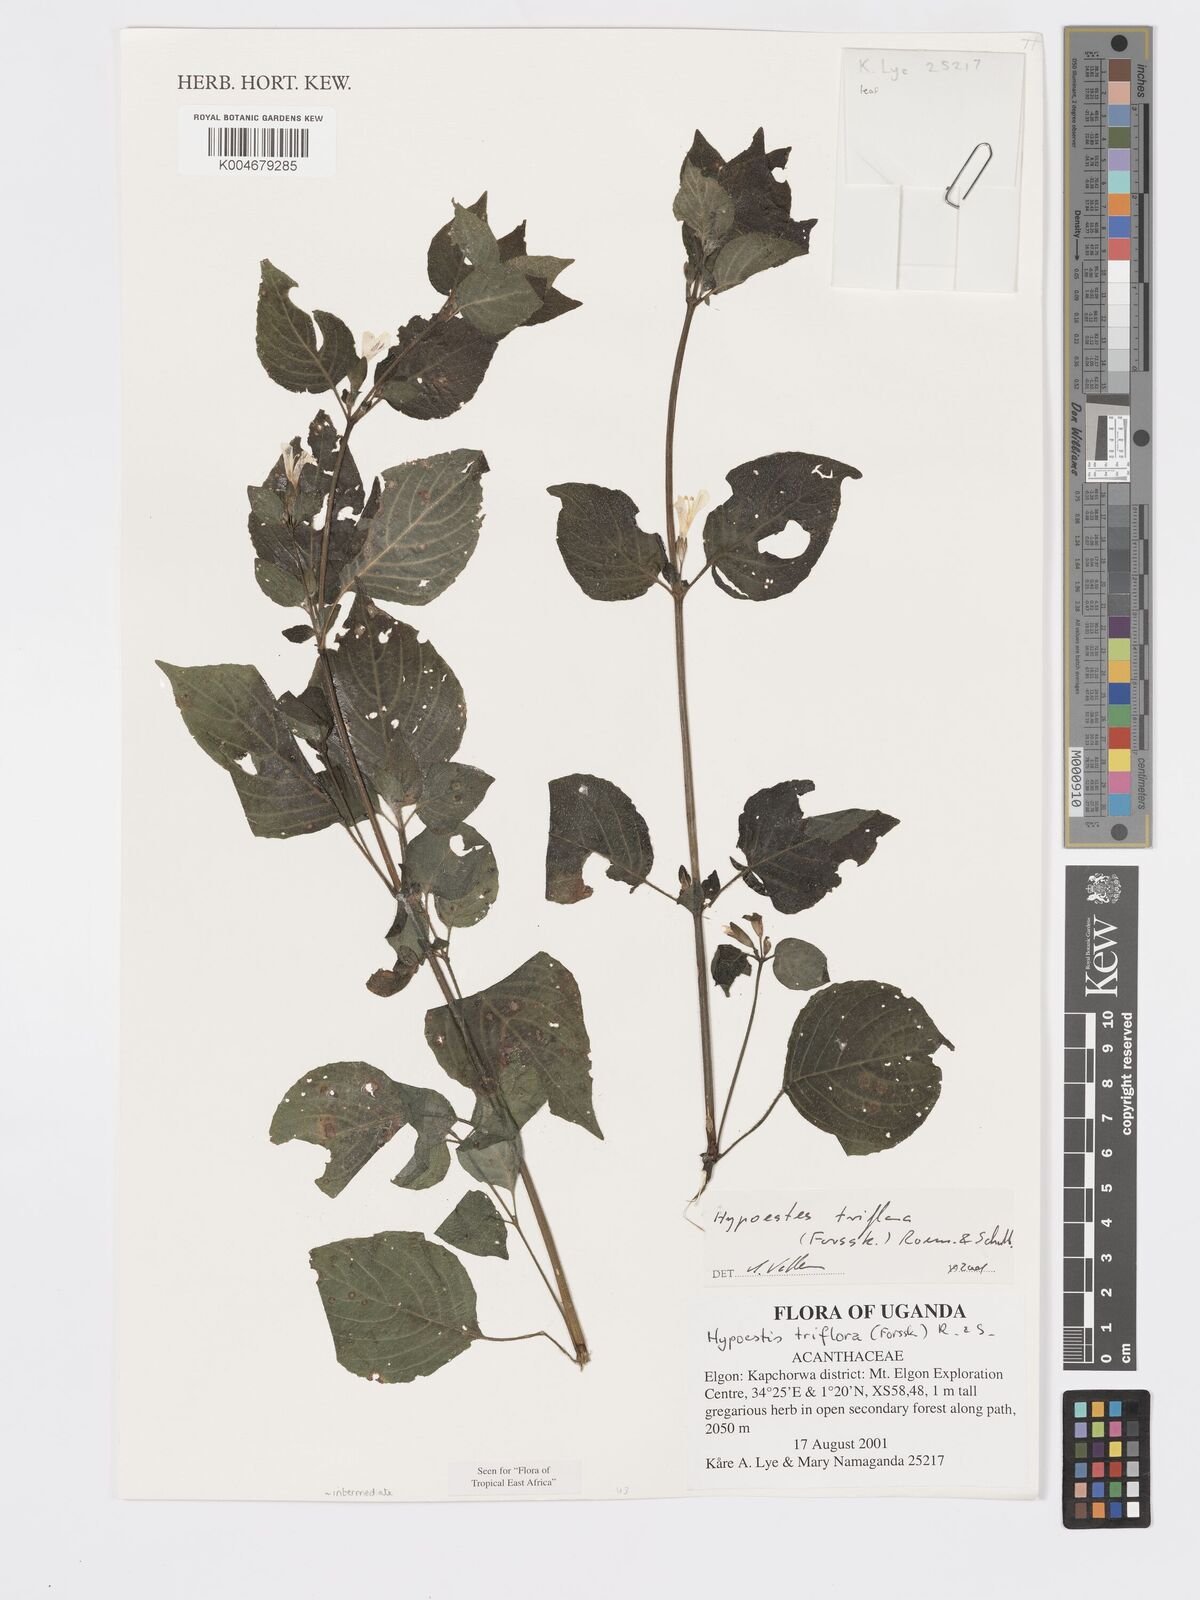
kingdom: Plantae
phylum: Tracheophyta
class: Magnoliopsida
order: Lamiales
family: Acanthaceae
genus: Hypoestes
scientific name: Hypoestes triflora
